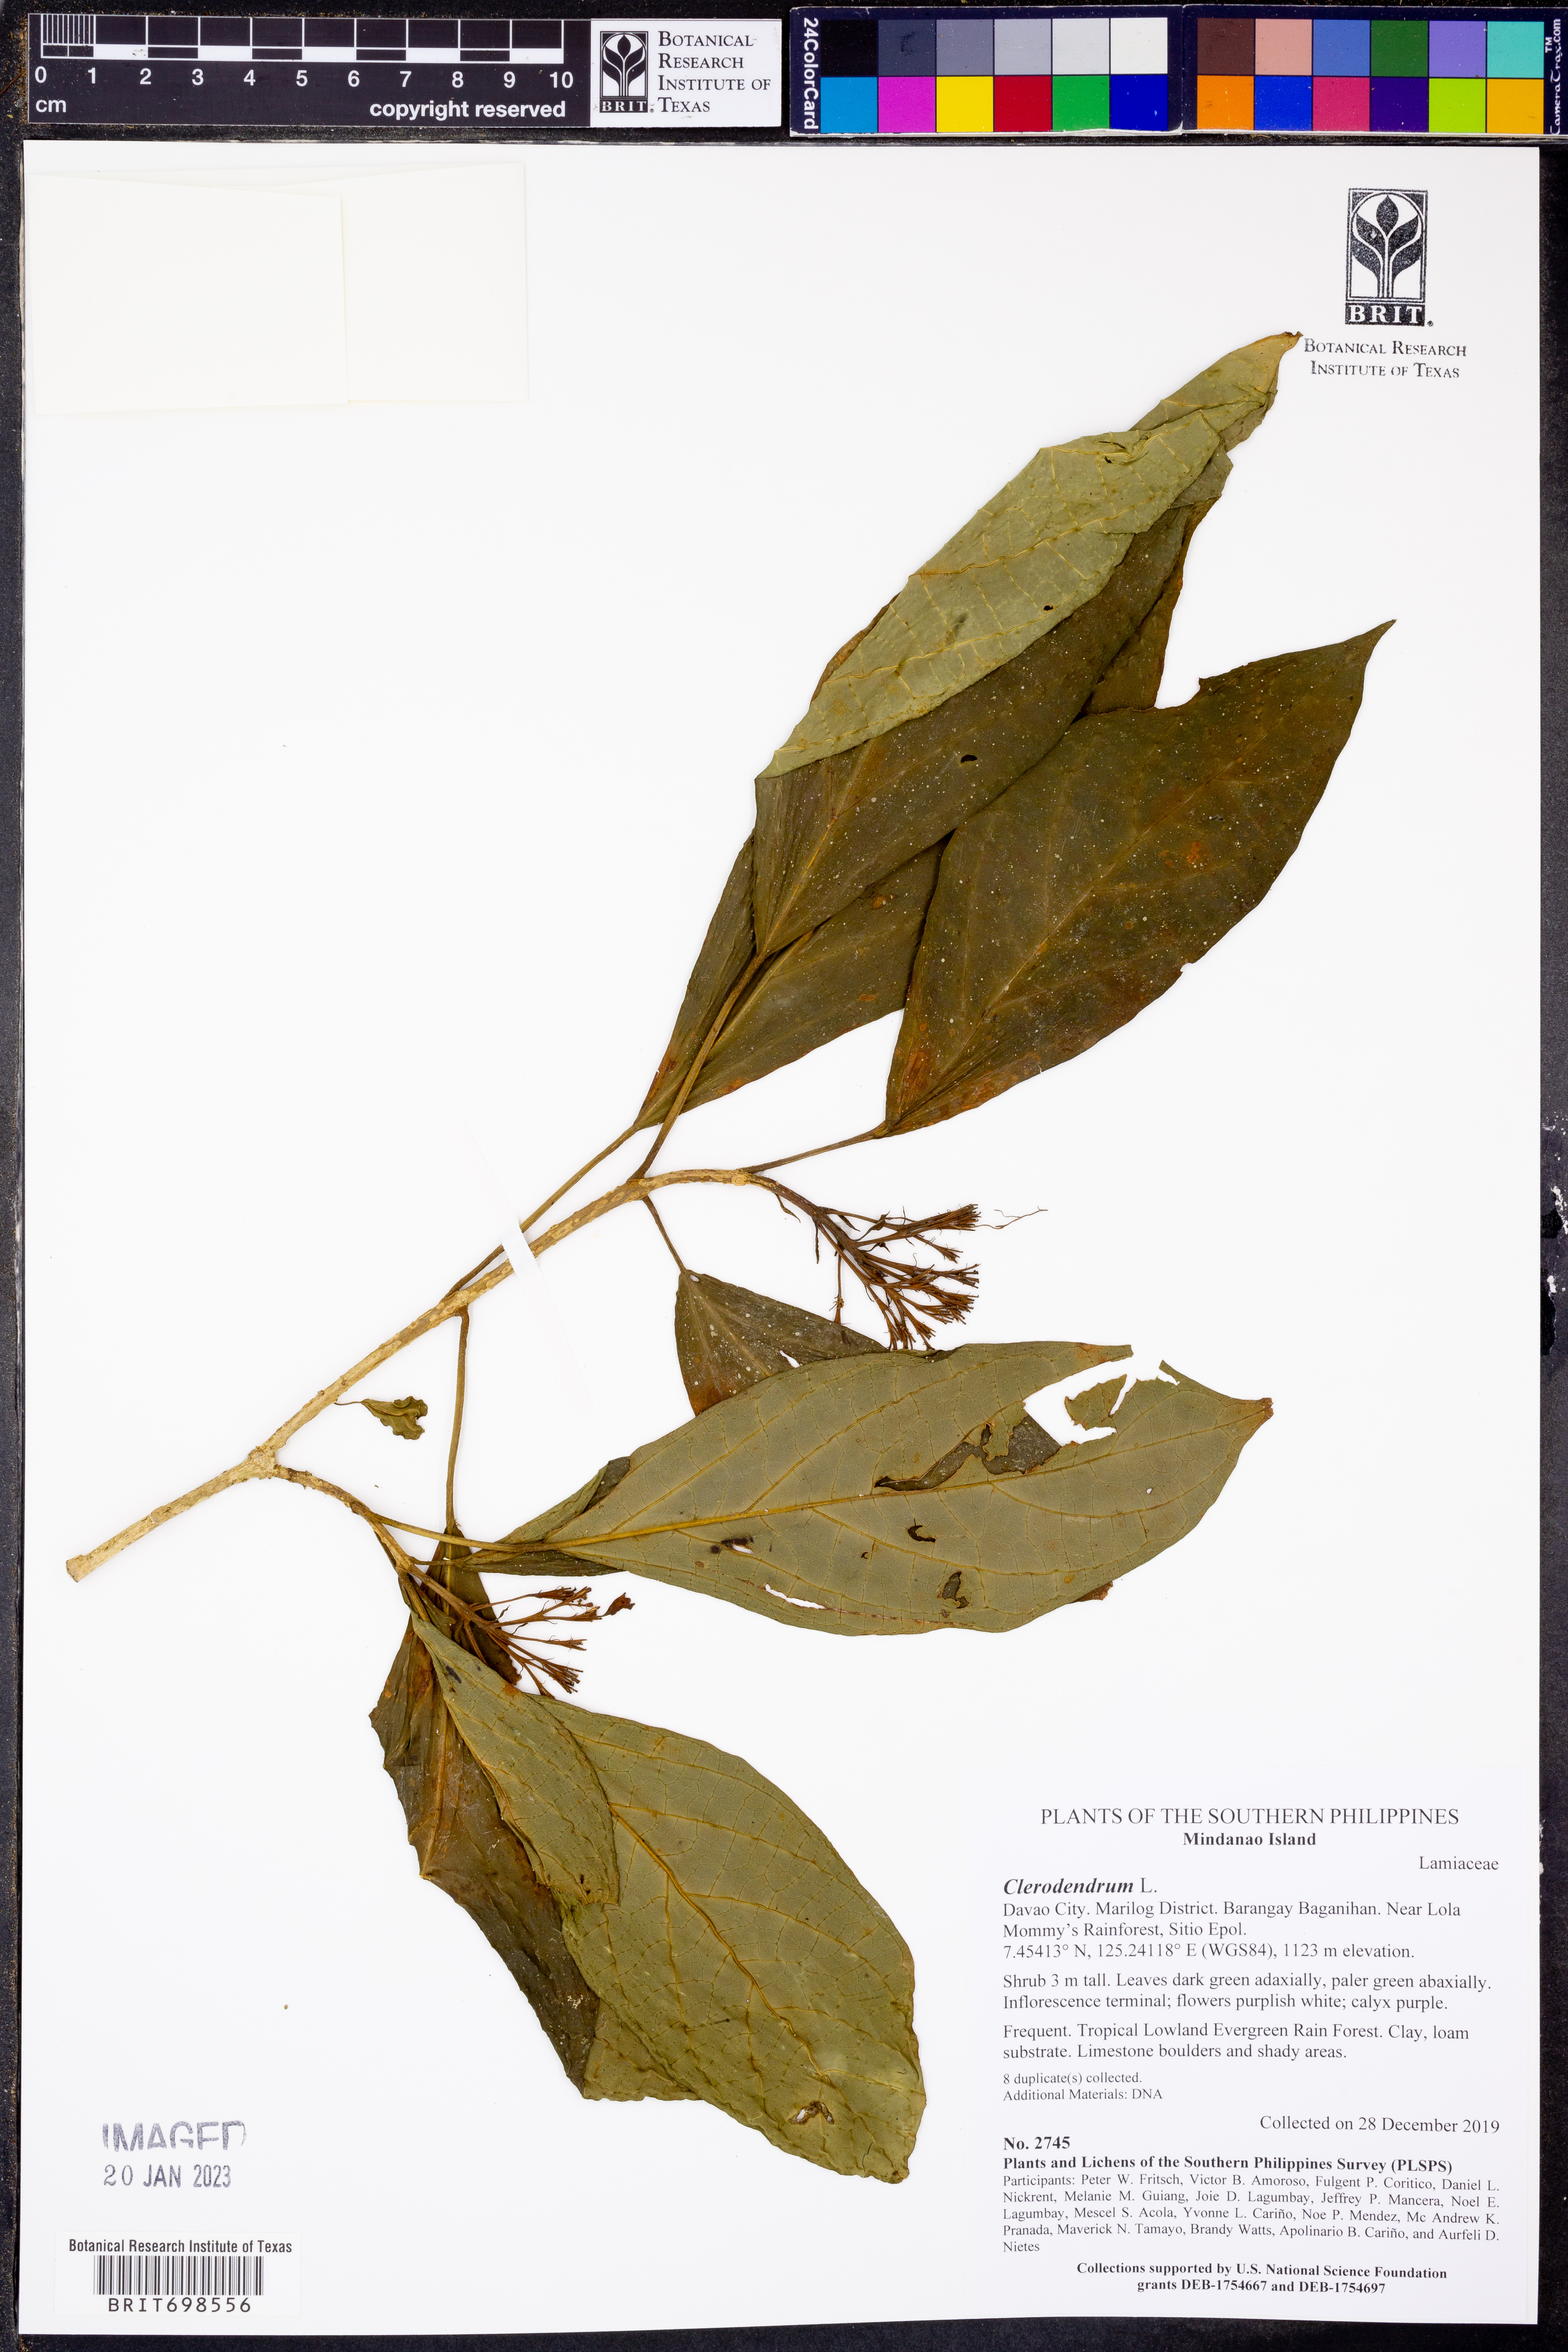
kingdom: Plantae
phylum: Tracheophyta
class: Magnoliopsida
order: Lamiales
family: Lamiaceae
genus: Clerodendrum
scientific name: Clerodendrum
